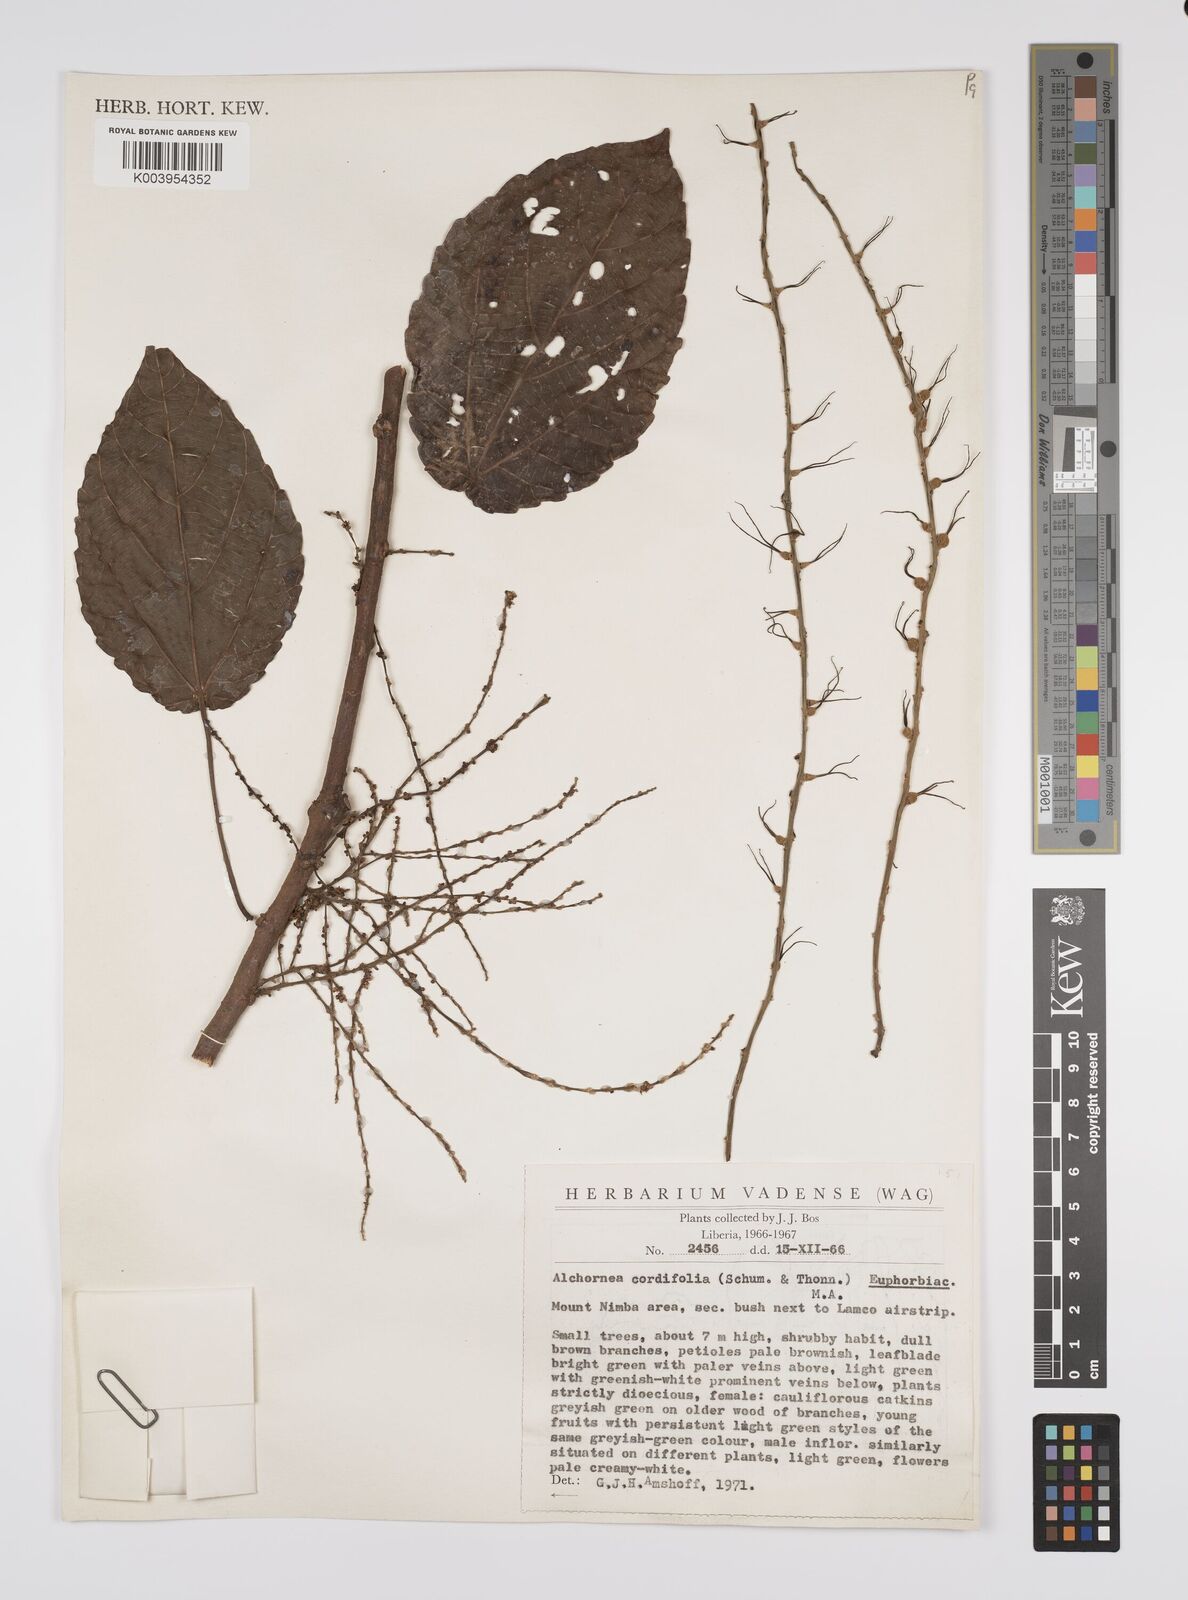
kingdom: Plantae
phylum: Tracheophyta
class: Magnoliopsida
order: Malpighiales
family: Euphorbiaceae
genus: Alchornea
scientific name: Alchornea cordifolia
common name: Christmasbush
